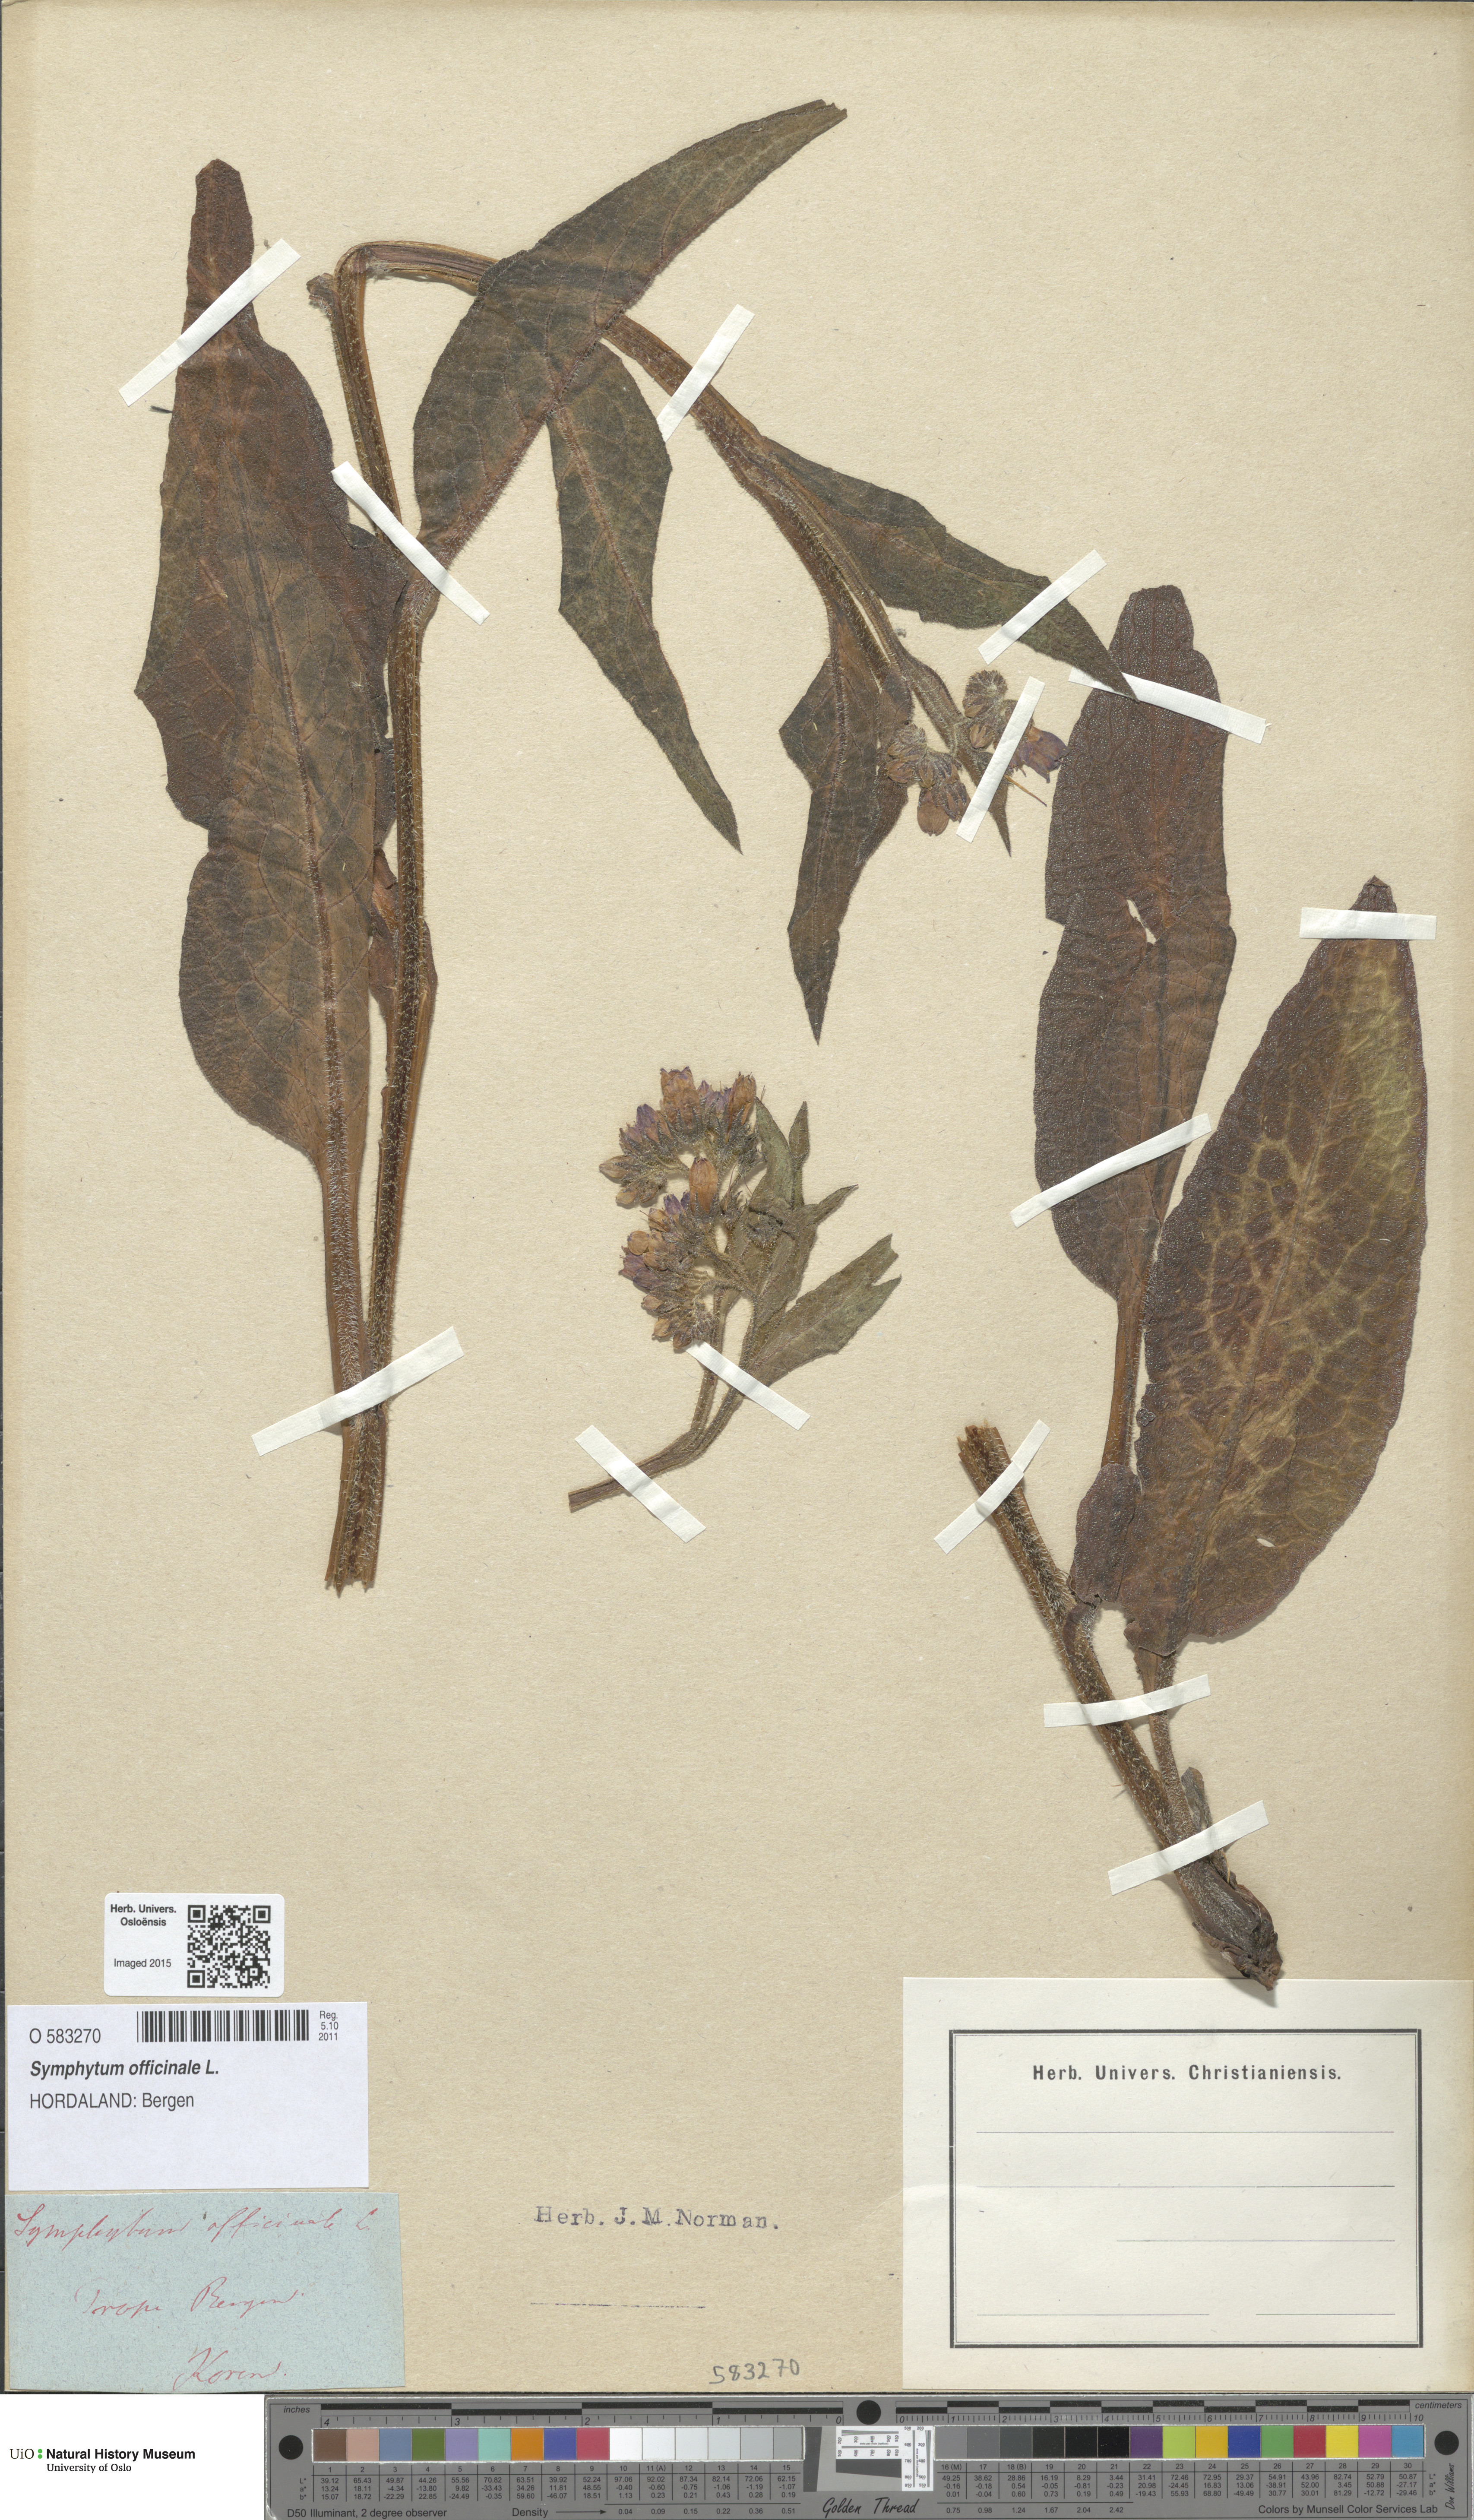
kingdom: Plantae
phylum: Tracheophyta
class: Magnoliopsida
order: Boraginales
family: Boraginaceae
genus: Symphytum
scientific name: Symphytum officinale
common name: Common comfrey
